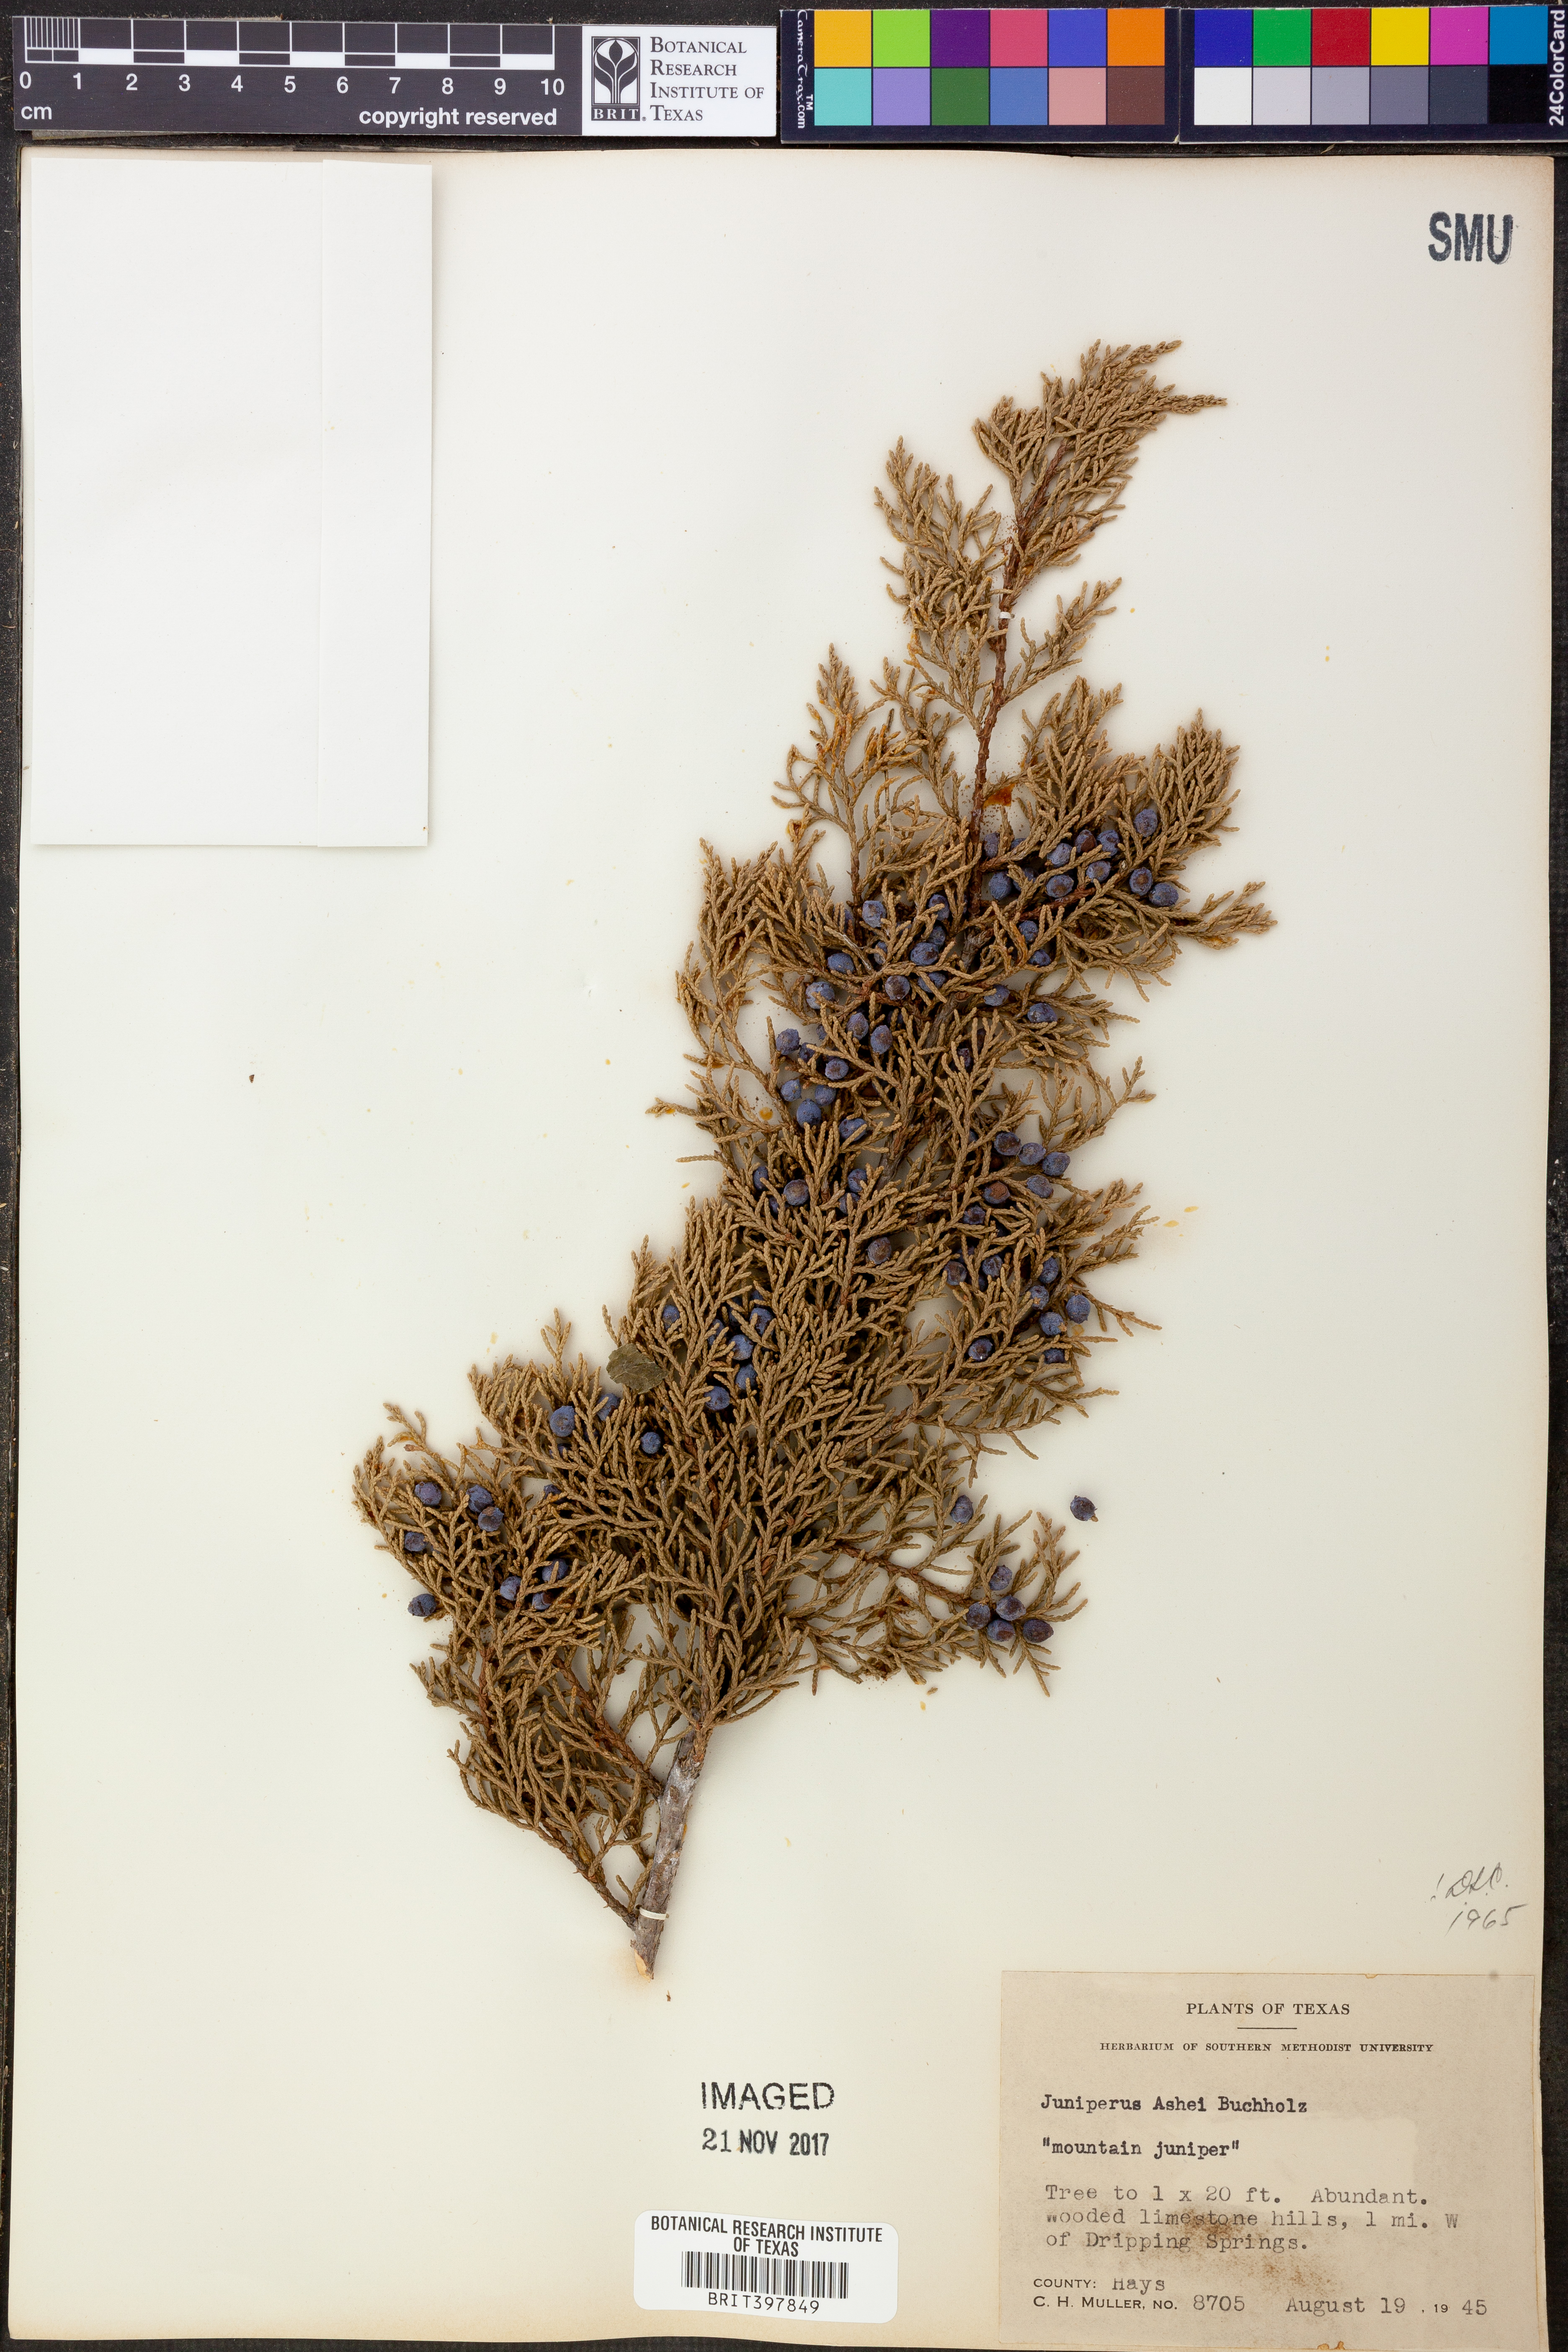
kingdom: Plantae
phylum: Tracheophyta
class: Pinopsida
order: Pinales
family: Cupressaceae
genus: Juniperus
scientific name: Juniperus ashei
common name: Mexican juniper
